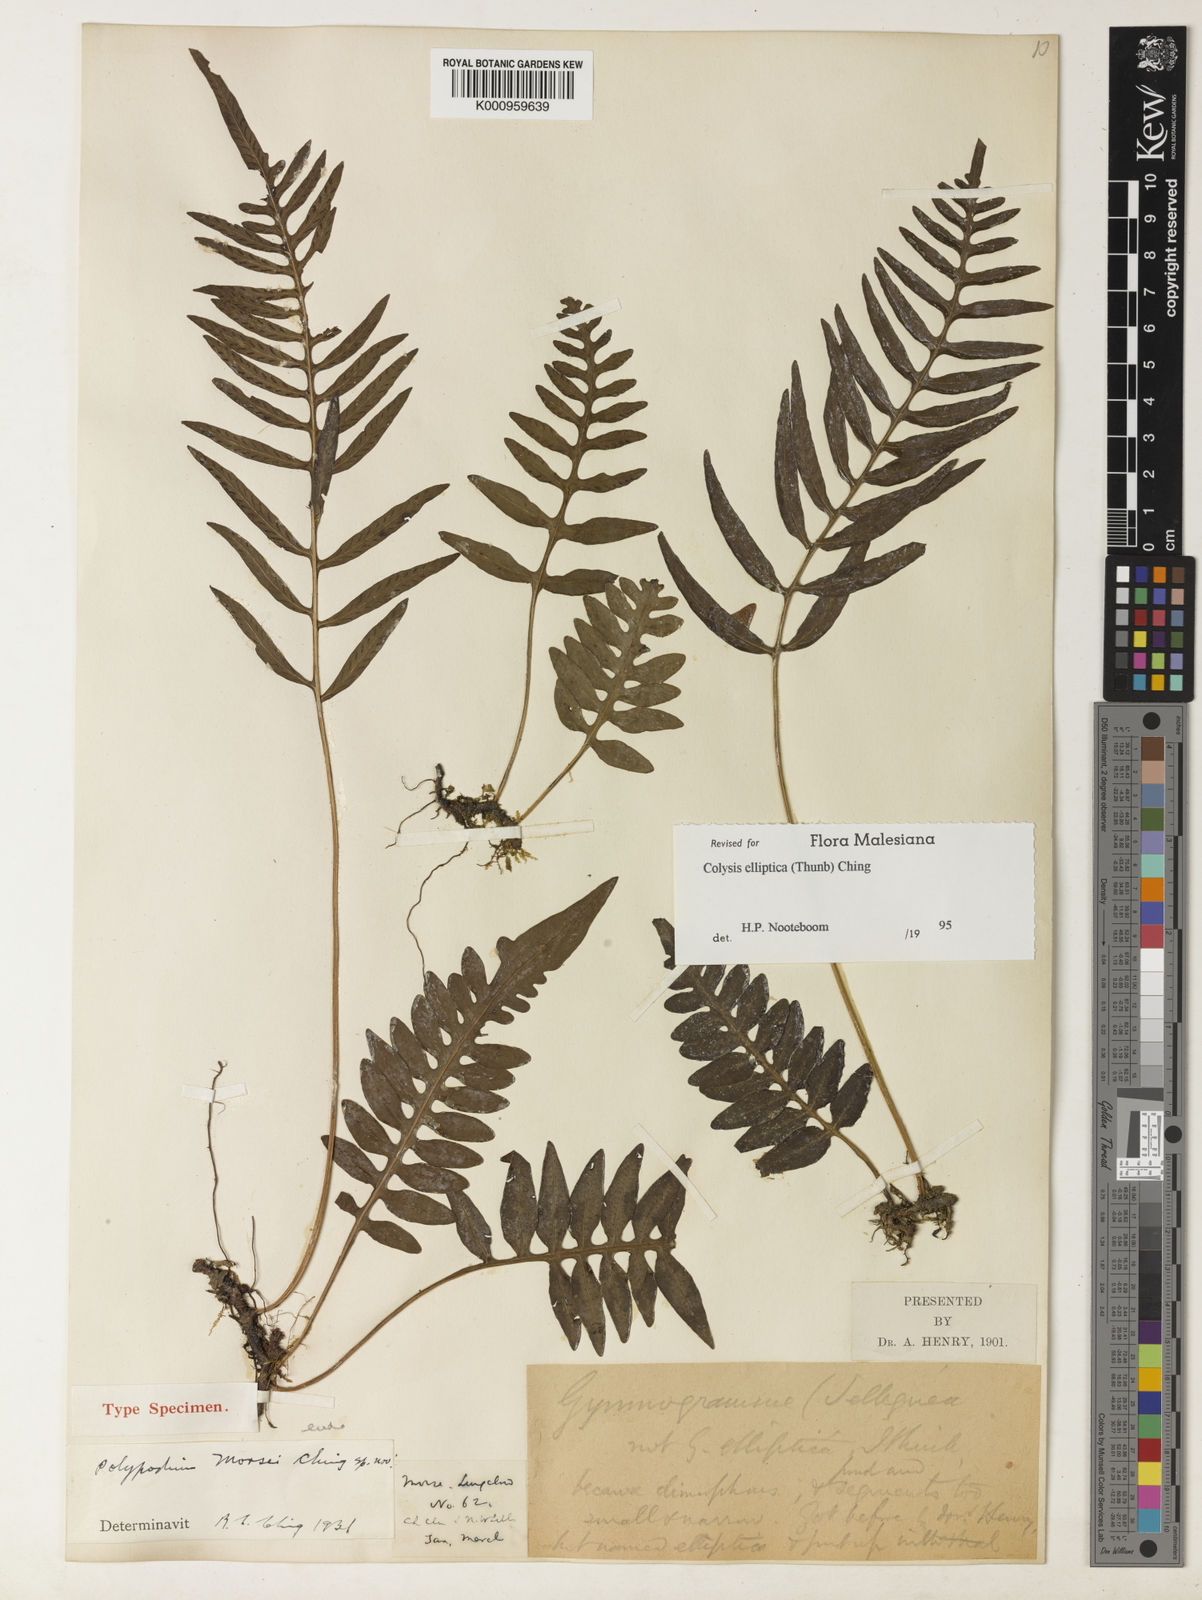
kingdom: Plantae
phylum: Tracheophyta
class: Polypodiopsida
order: Polypodiales
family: Polypodiaceae
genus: Leptochilus
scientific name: Leptochilus ellipticus
